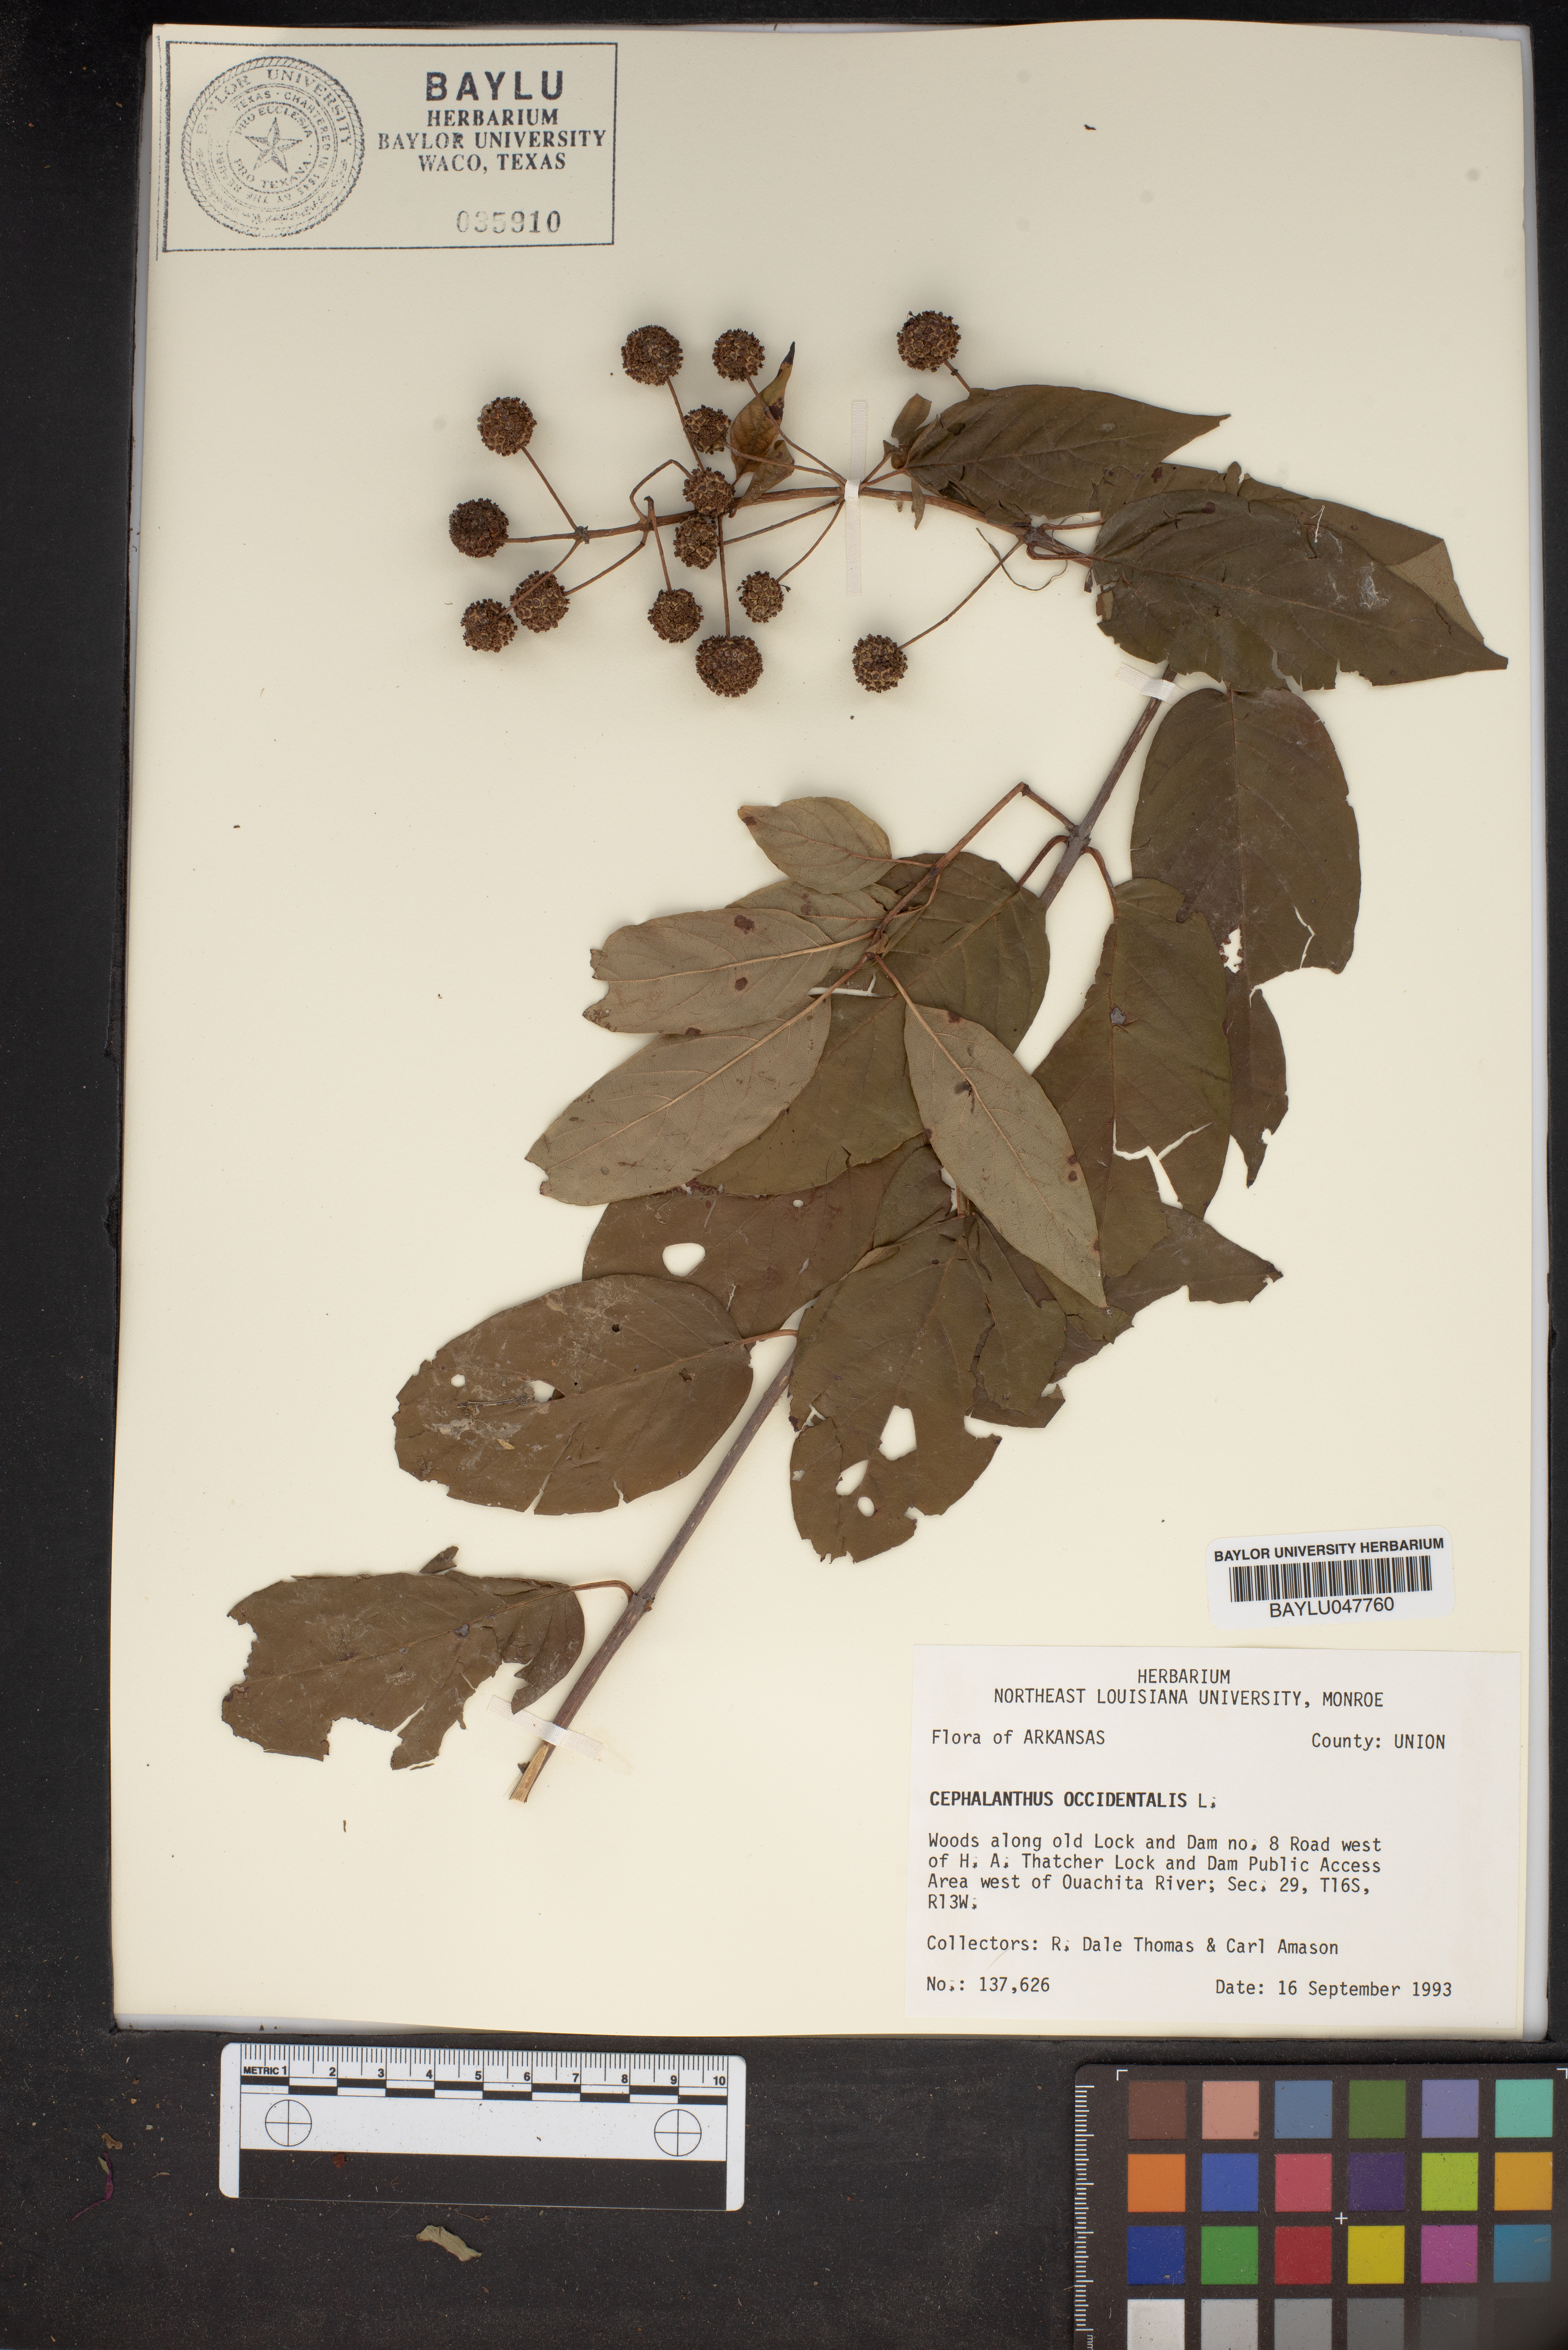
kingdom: Plantae
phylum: Tracheophyta
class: Magnoliopsida
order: Gentianales
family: Rubiaceae
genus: Cephalanthus
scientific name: Cephalanthus occidentalis
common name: Button-willow
